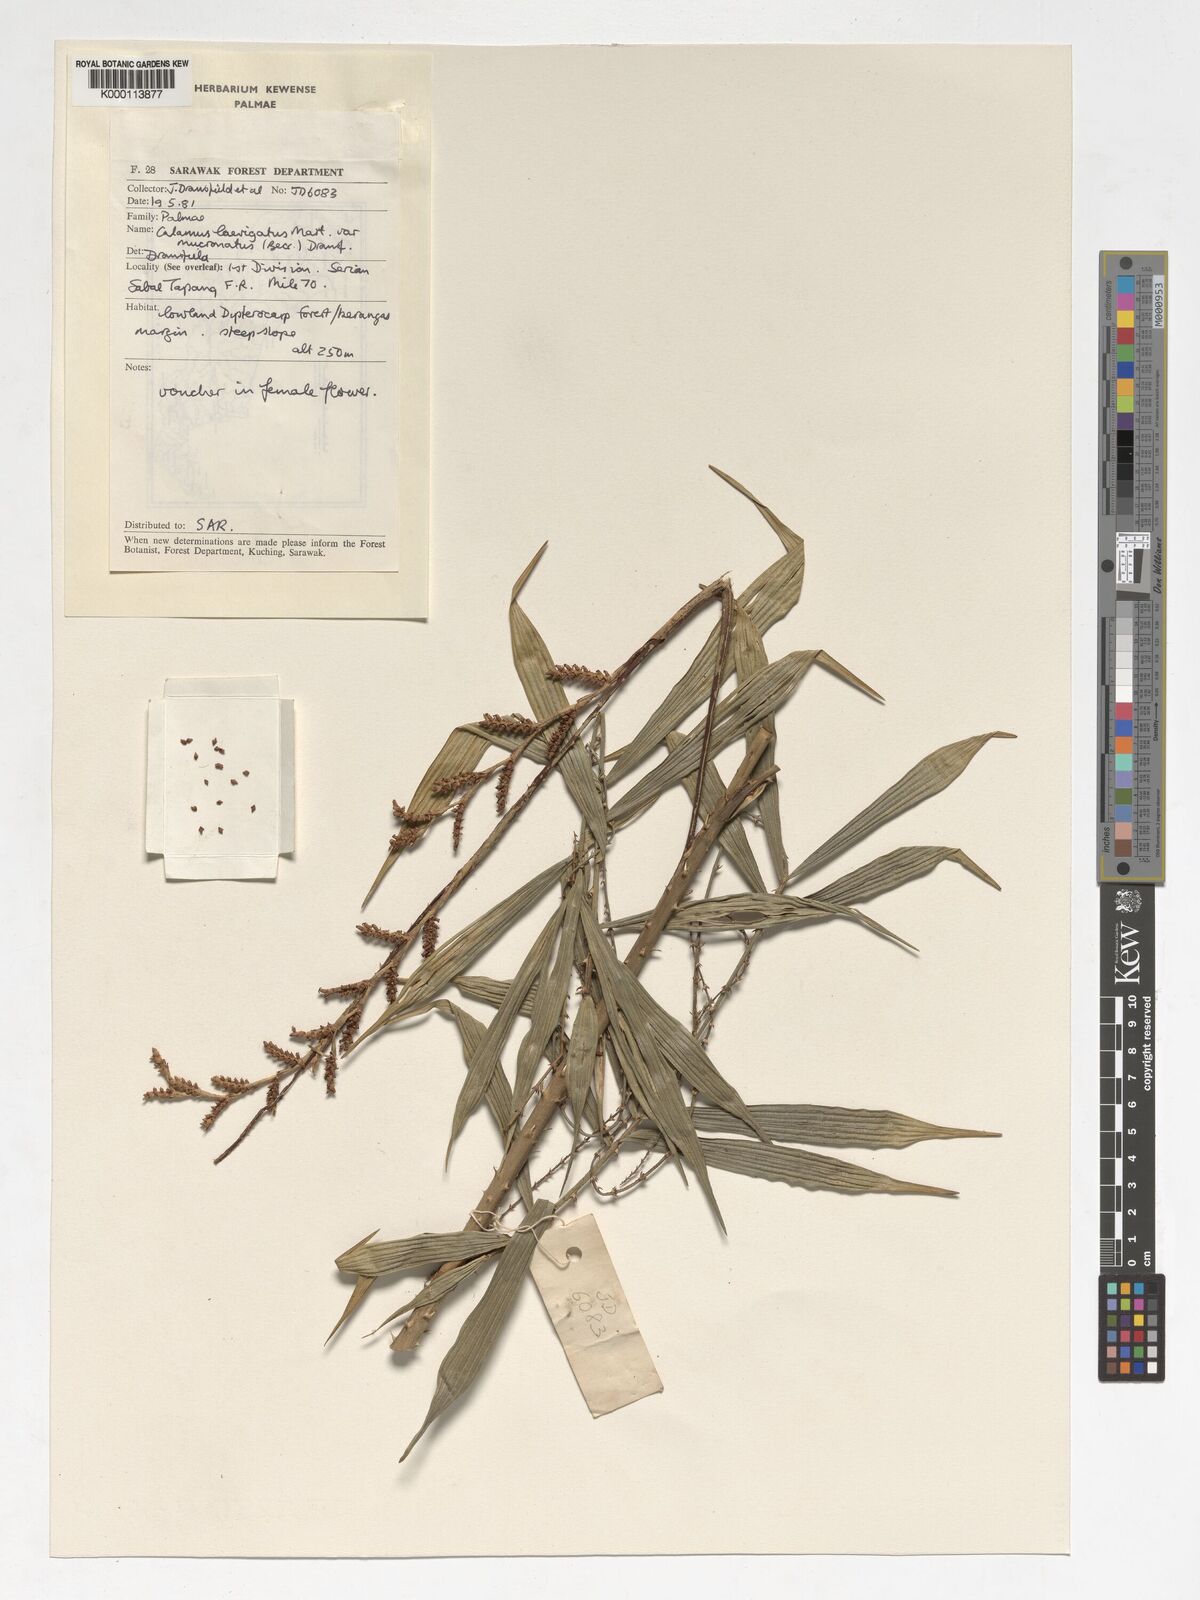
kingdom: Plantae
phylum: Tracheophyta
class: Liliopsida
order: Arecales
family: Arecaceae
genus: Calamus
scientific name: Calamus plicatus
